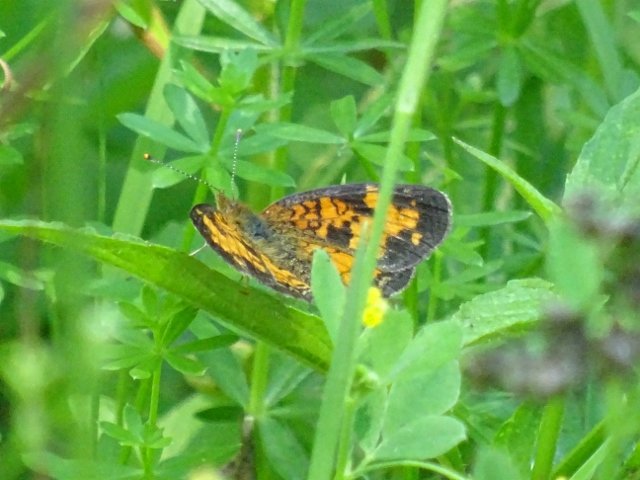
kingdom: Animalia
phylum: Arthropoda
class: Insecta
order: Lepidoptera
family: Nymphalidae
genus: Phyciodes
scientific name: Phyciodes tharos
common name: Northern Crescent
